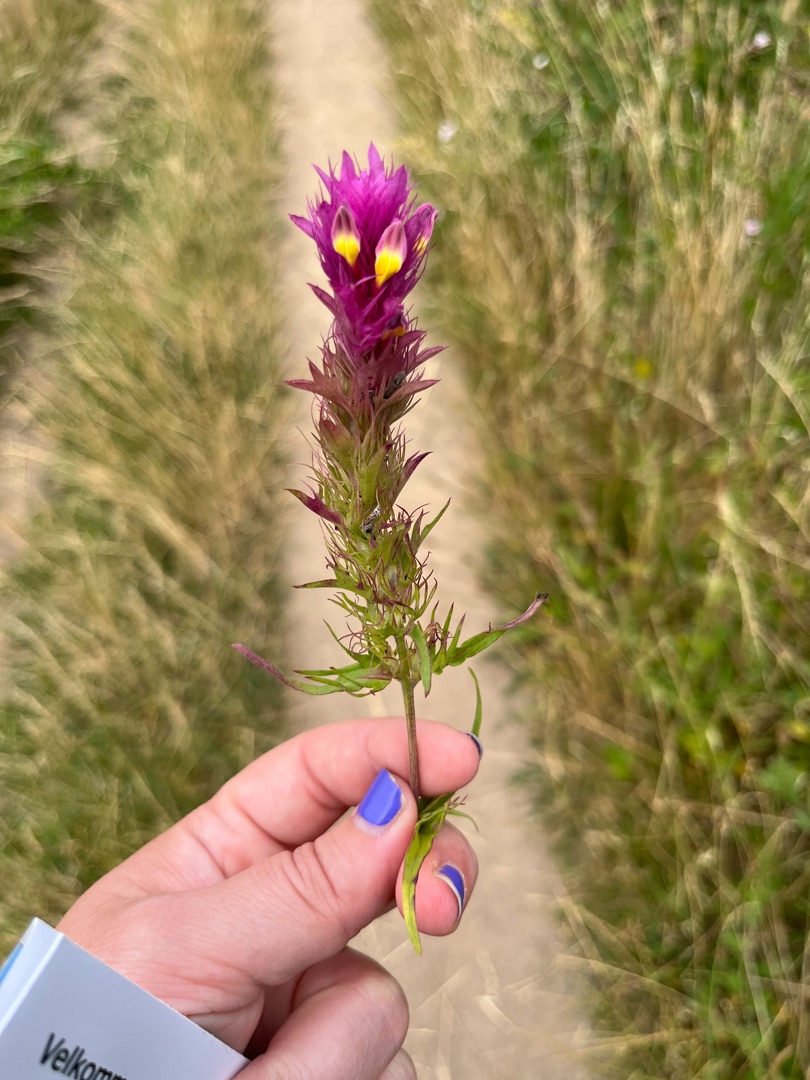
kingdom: Plantae
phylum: Tracheophyta
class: Magnoliopsida
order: Lamiales
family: Orobanchaceae
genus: Melampyrum
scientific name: Melampyrum arvense
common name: Ager-kohvede
